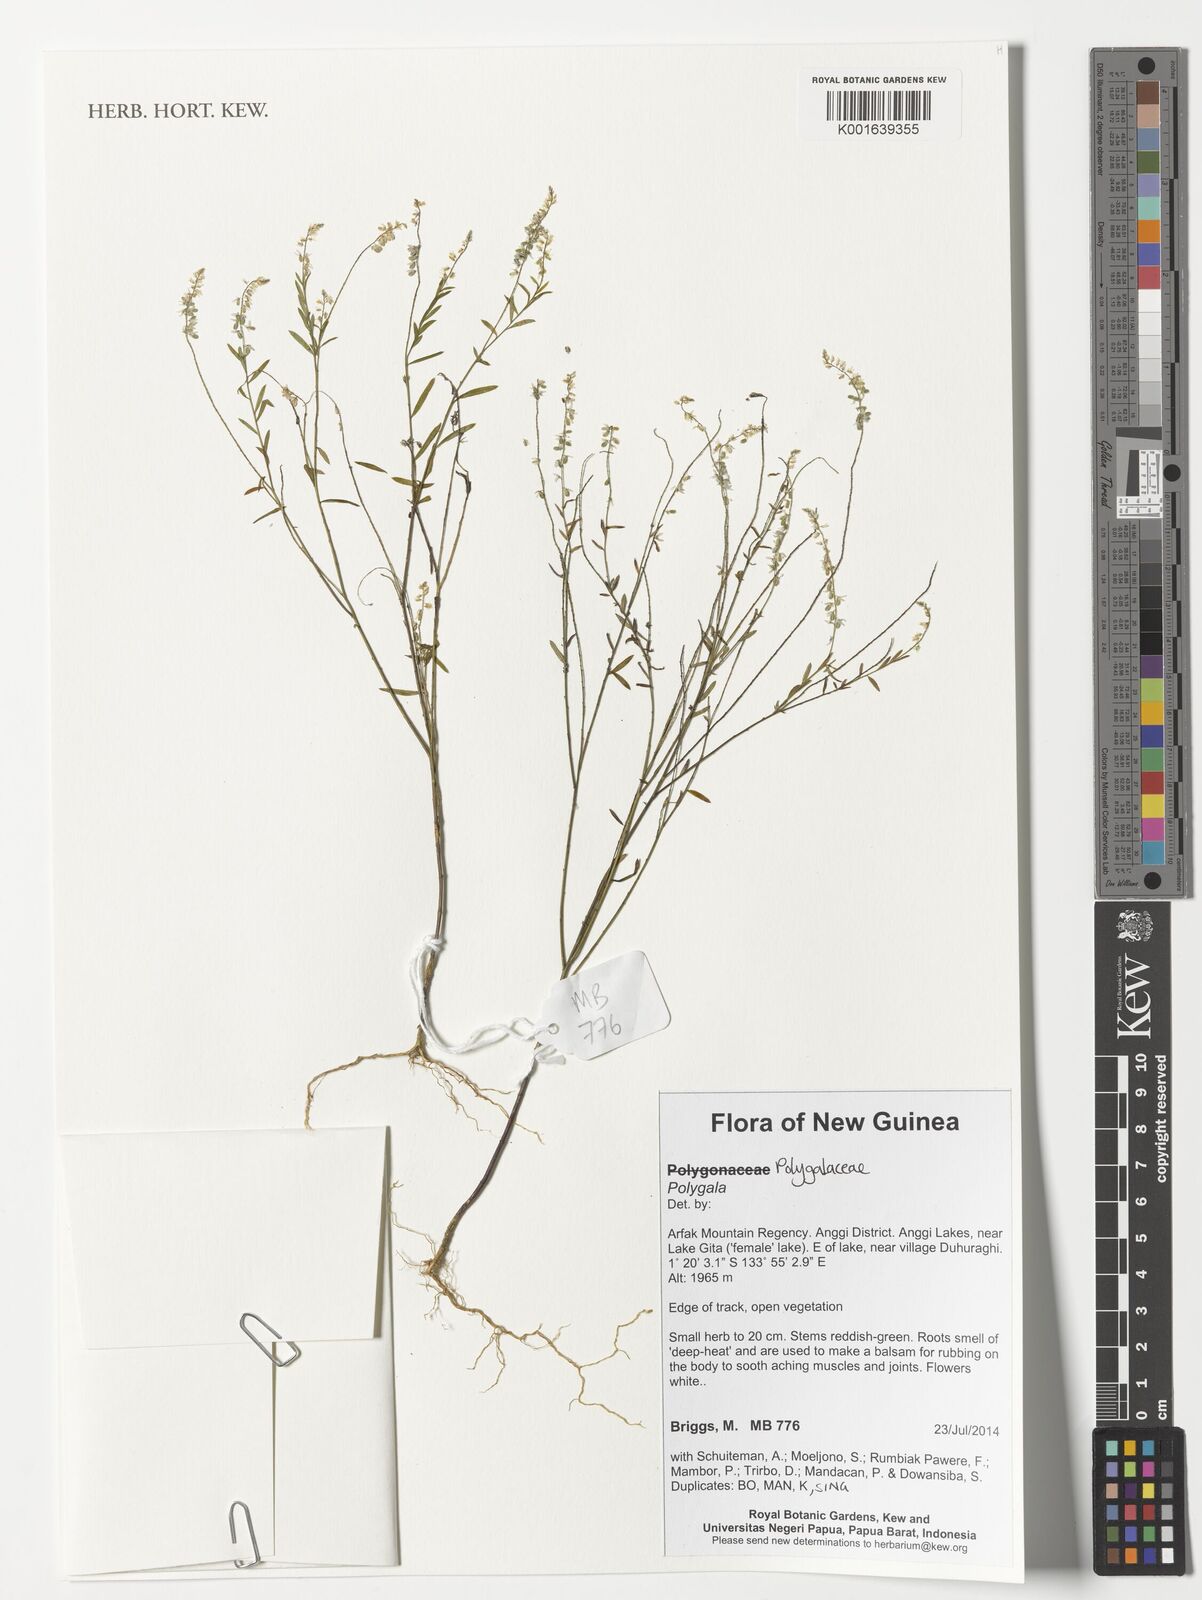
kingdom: Plantae
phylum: Tracheophyta
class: Magnoliopsida
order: Fabales
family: Polygalaceae
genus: Polygala
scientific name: Polygala
